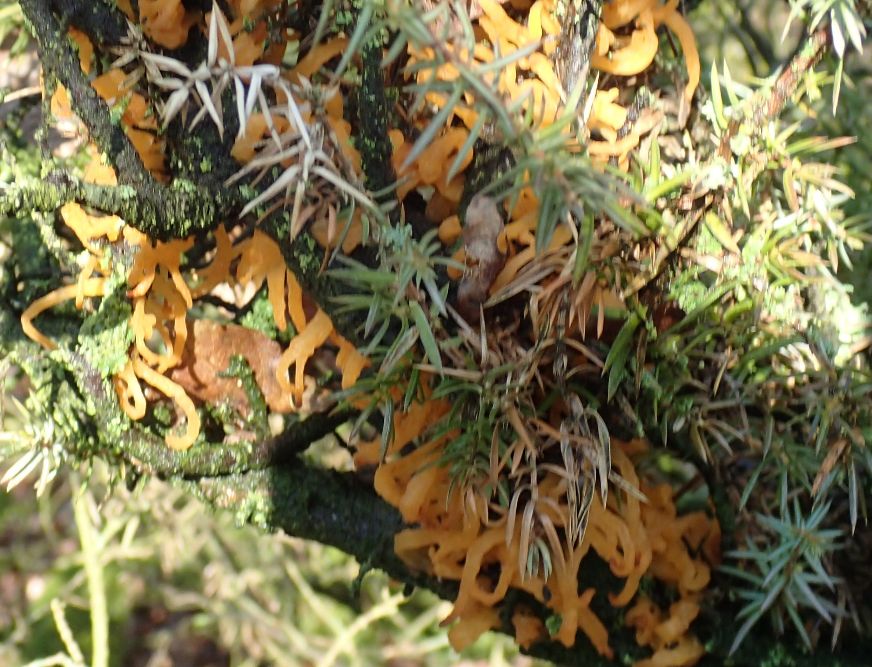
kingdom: Fungi
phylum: Basidiomycota
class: Pucciniomycetes
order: Pucciniales
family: Gymnosporangiaceae
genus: Gymnosporangium
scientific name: Gymnosporangium clavariiforme
